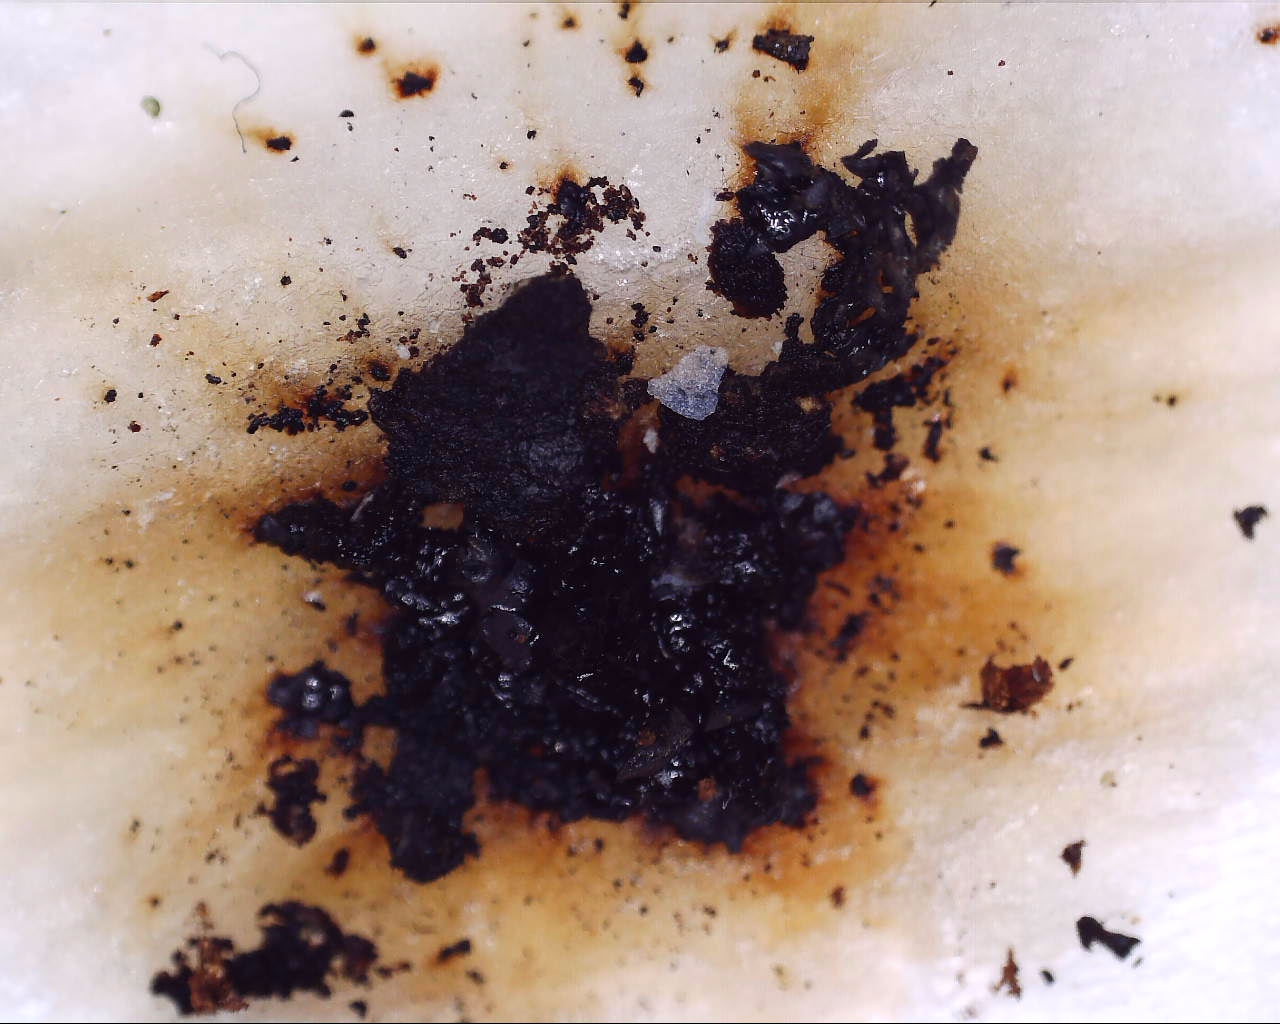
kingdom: Fungi
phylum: Ascomycota
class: Sordariomycetes
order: Xylariales
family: Hypoxylaceae
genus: Jackrogersella
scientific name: Jackrogersella multiformis
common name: foranderlig kulbær
